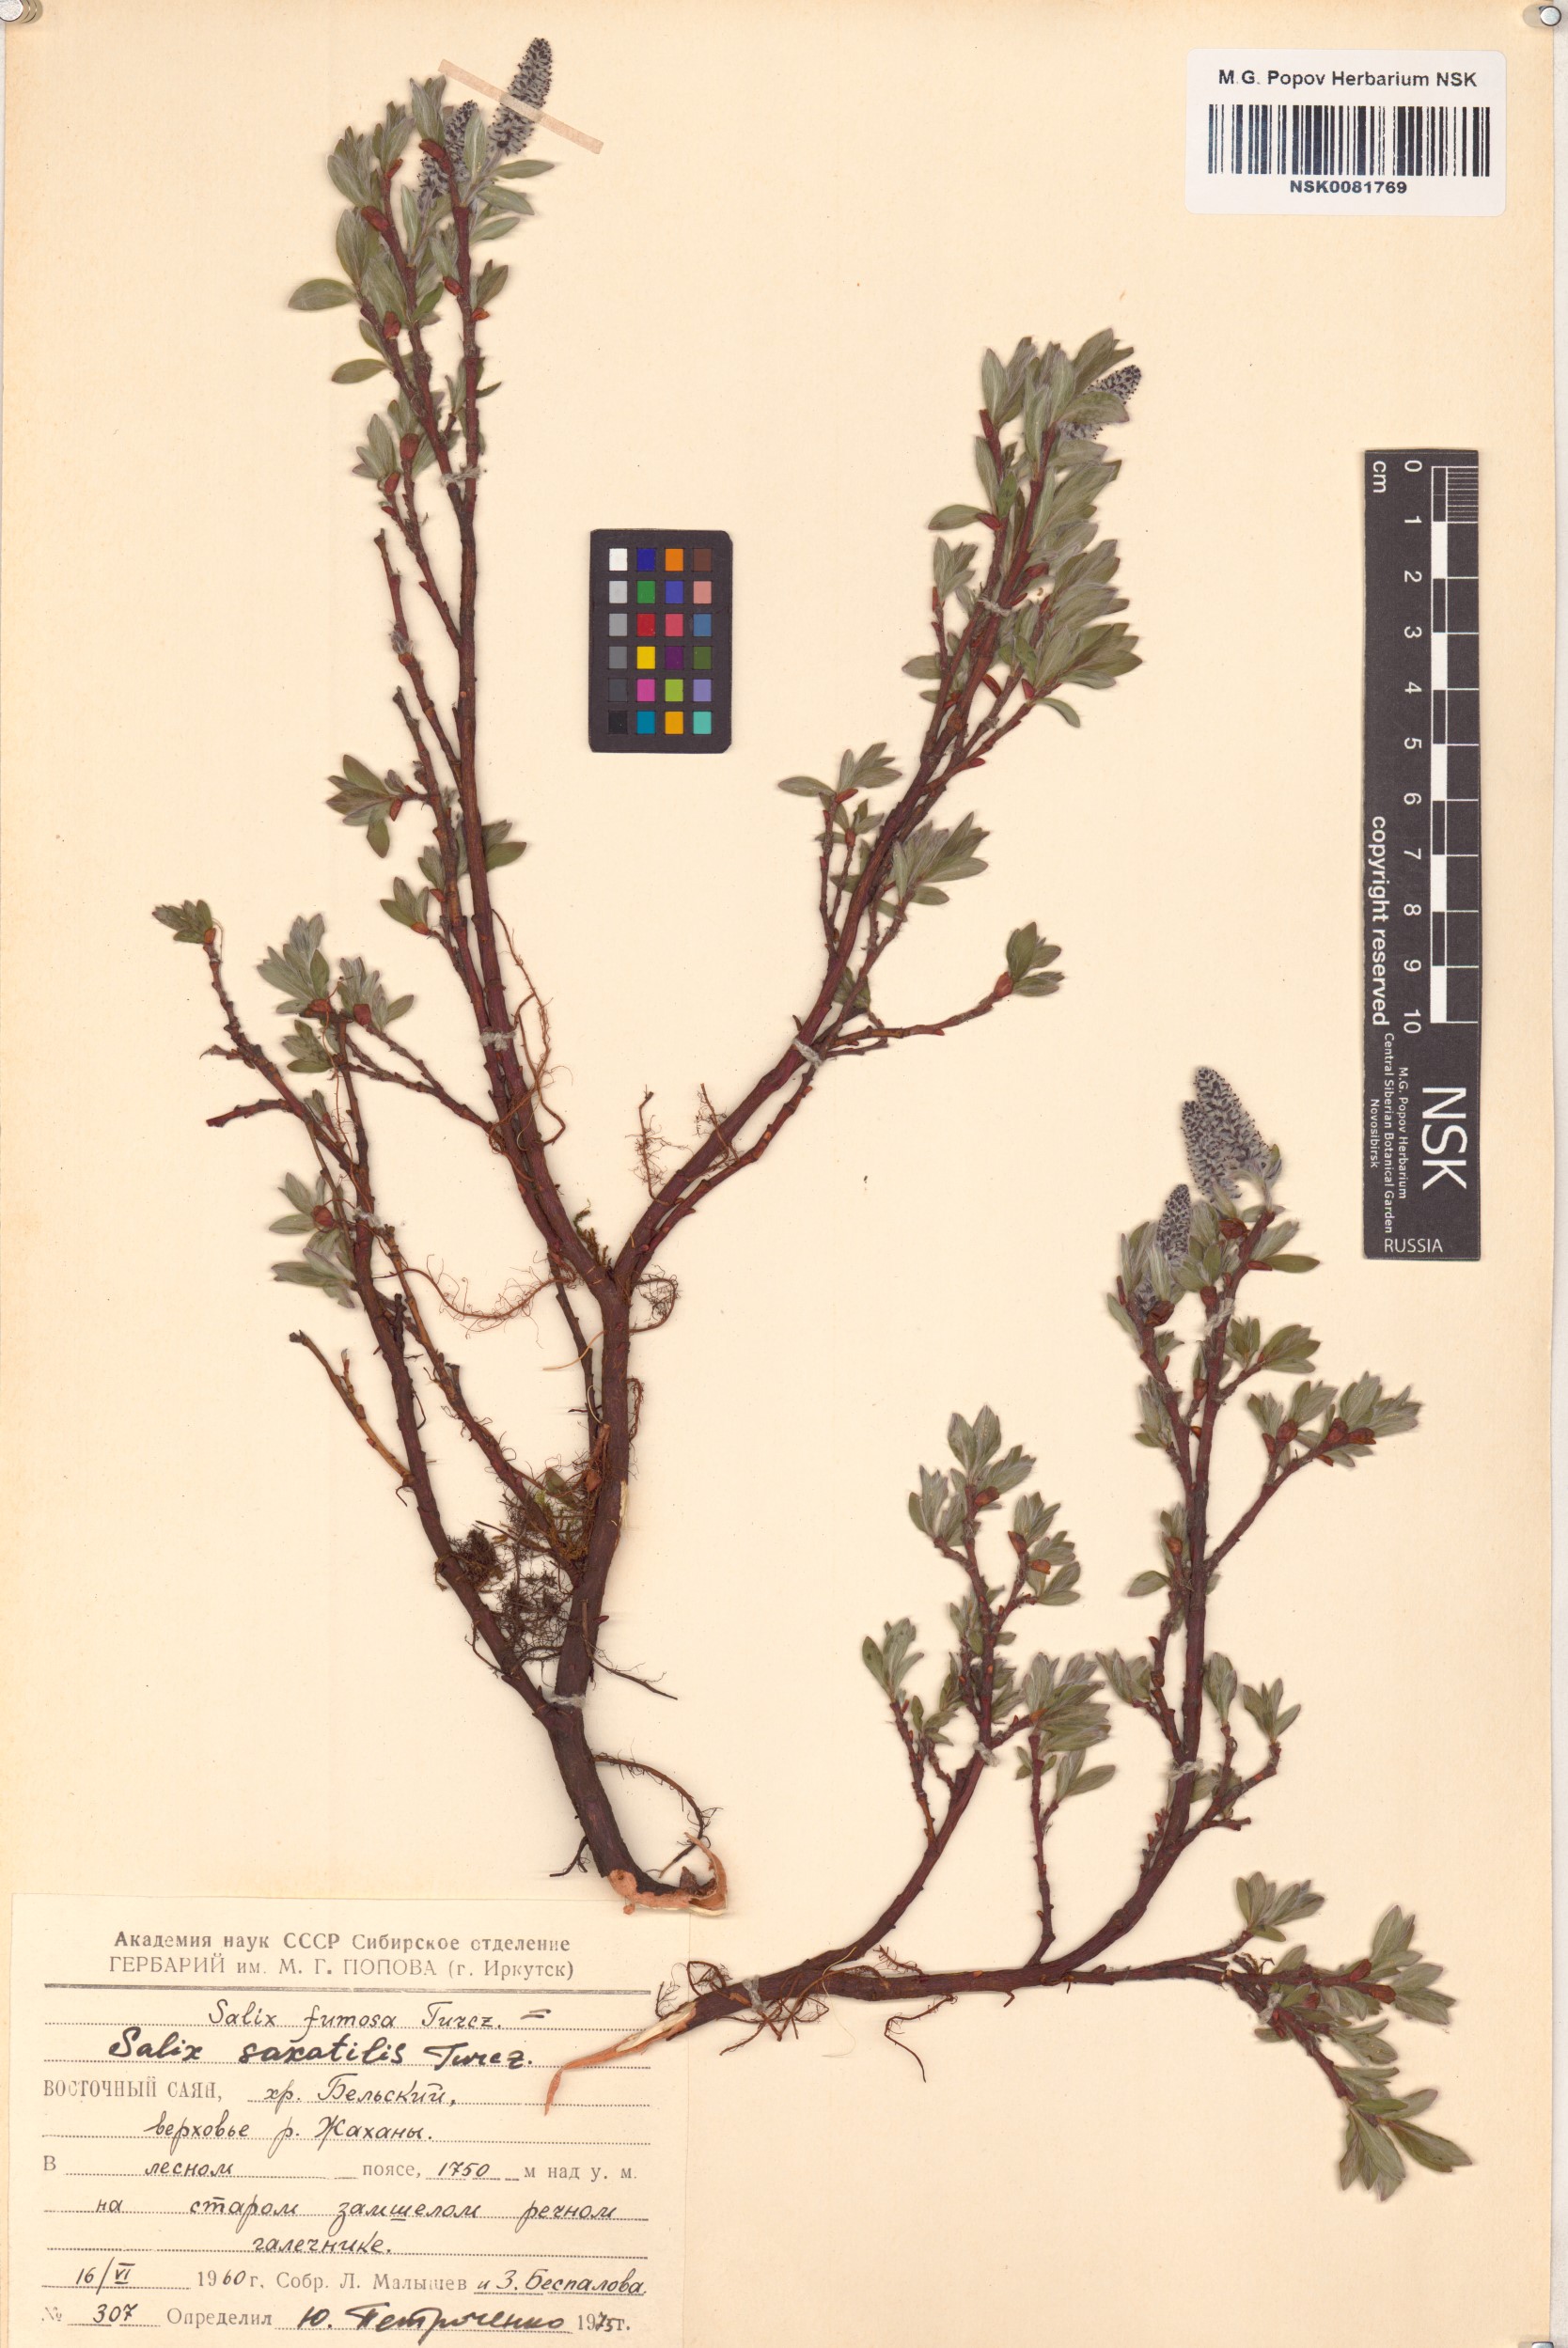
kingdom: Plantae
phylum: Tracheophyta
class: Magnoliopsida
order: Malpighiales
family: Salicaceae
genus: Salix
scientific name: Salix saxatilis
